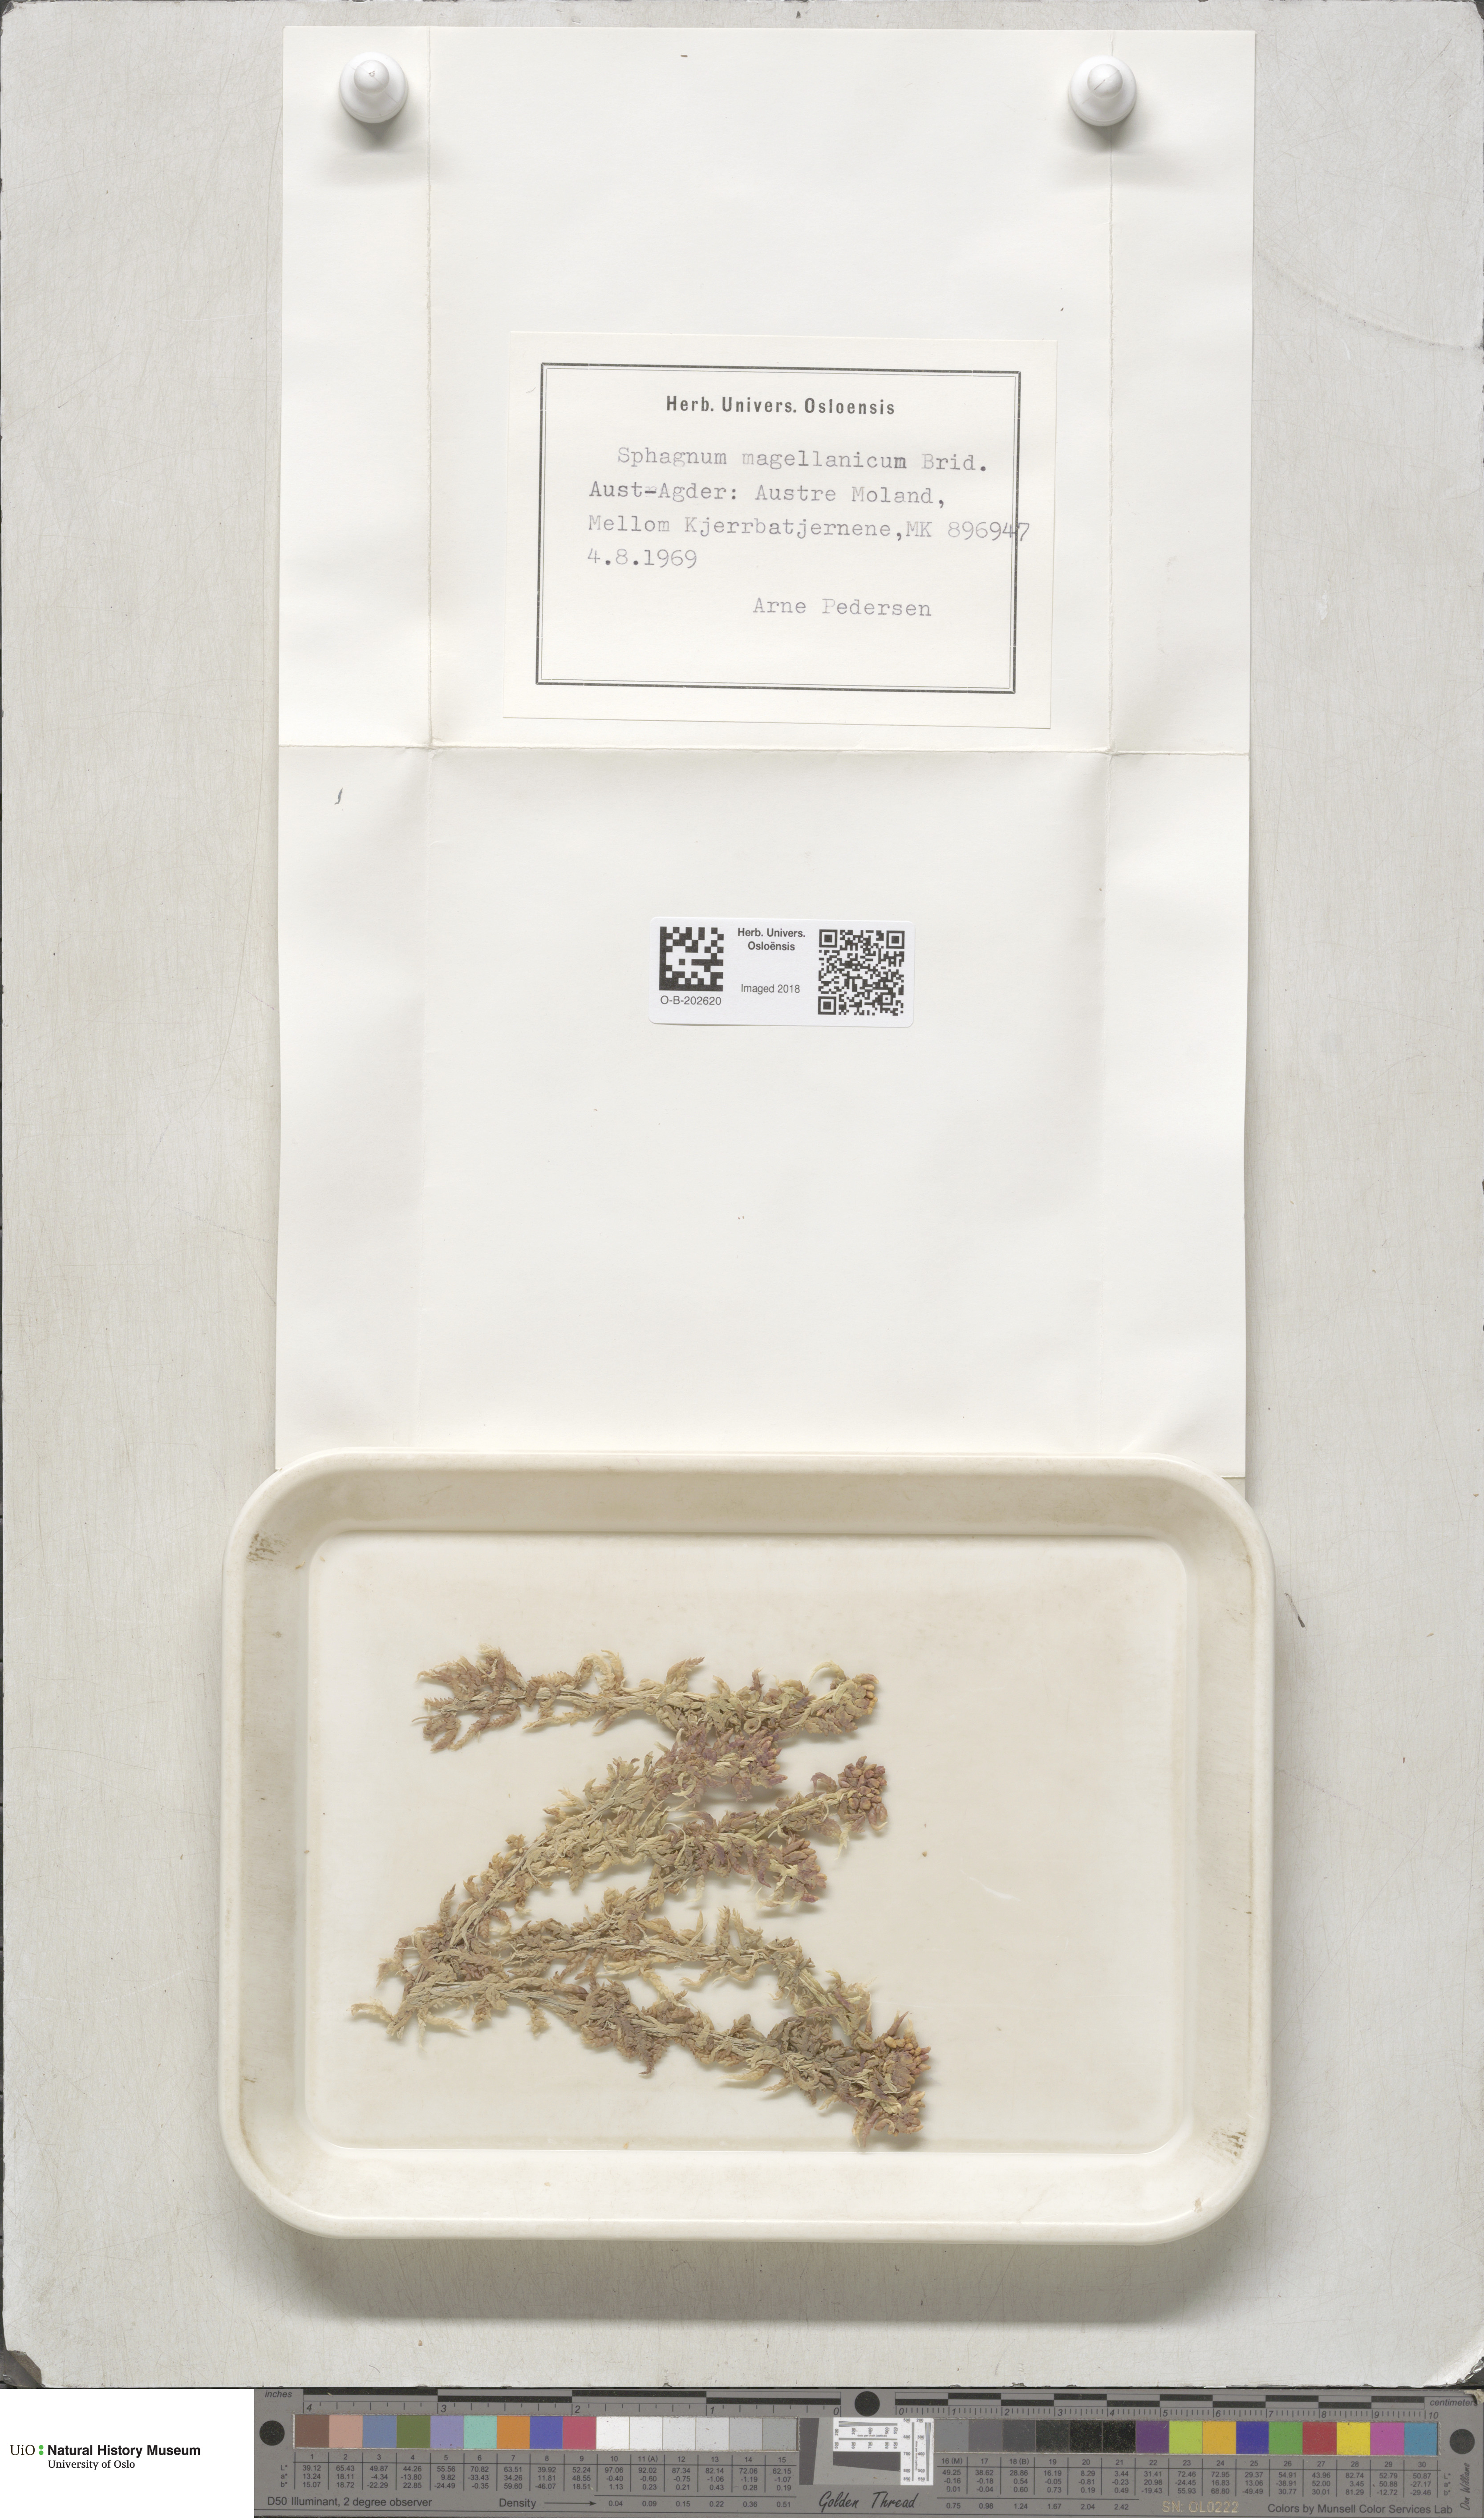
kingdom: Plantae
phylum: Bryophyta
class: Sphagnopsida
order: Sphagnales
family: Sphagnaceae
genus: Sphagnum
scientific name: Sphagnum magellanicum
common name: Magellan's peat moss
